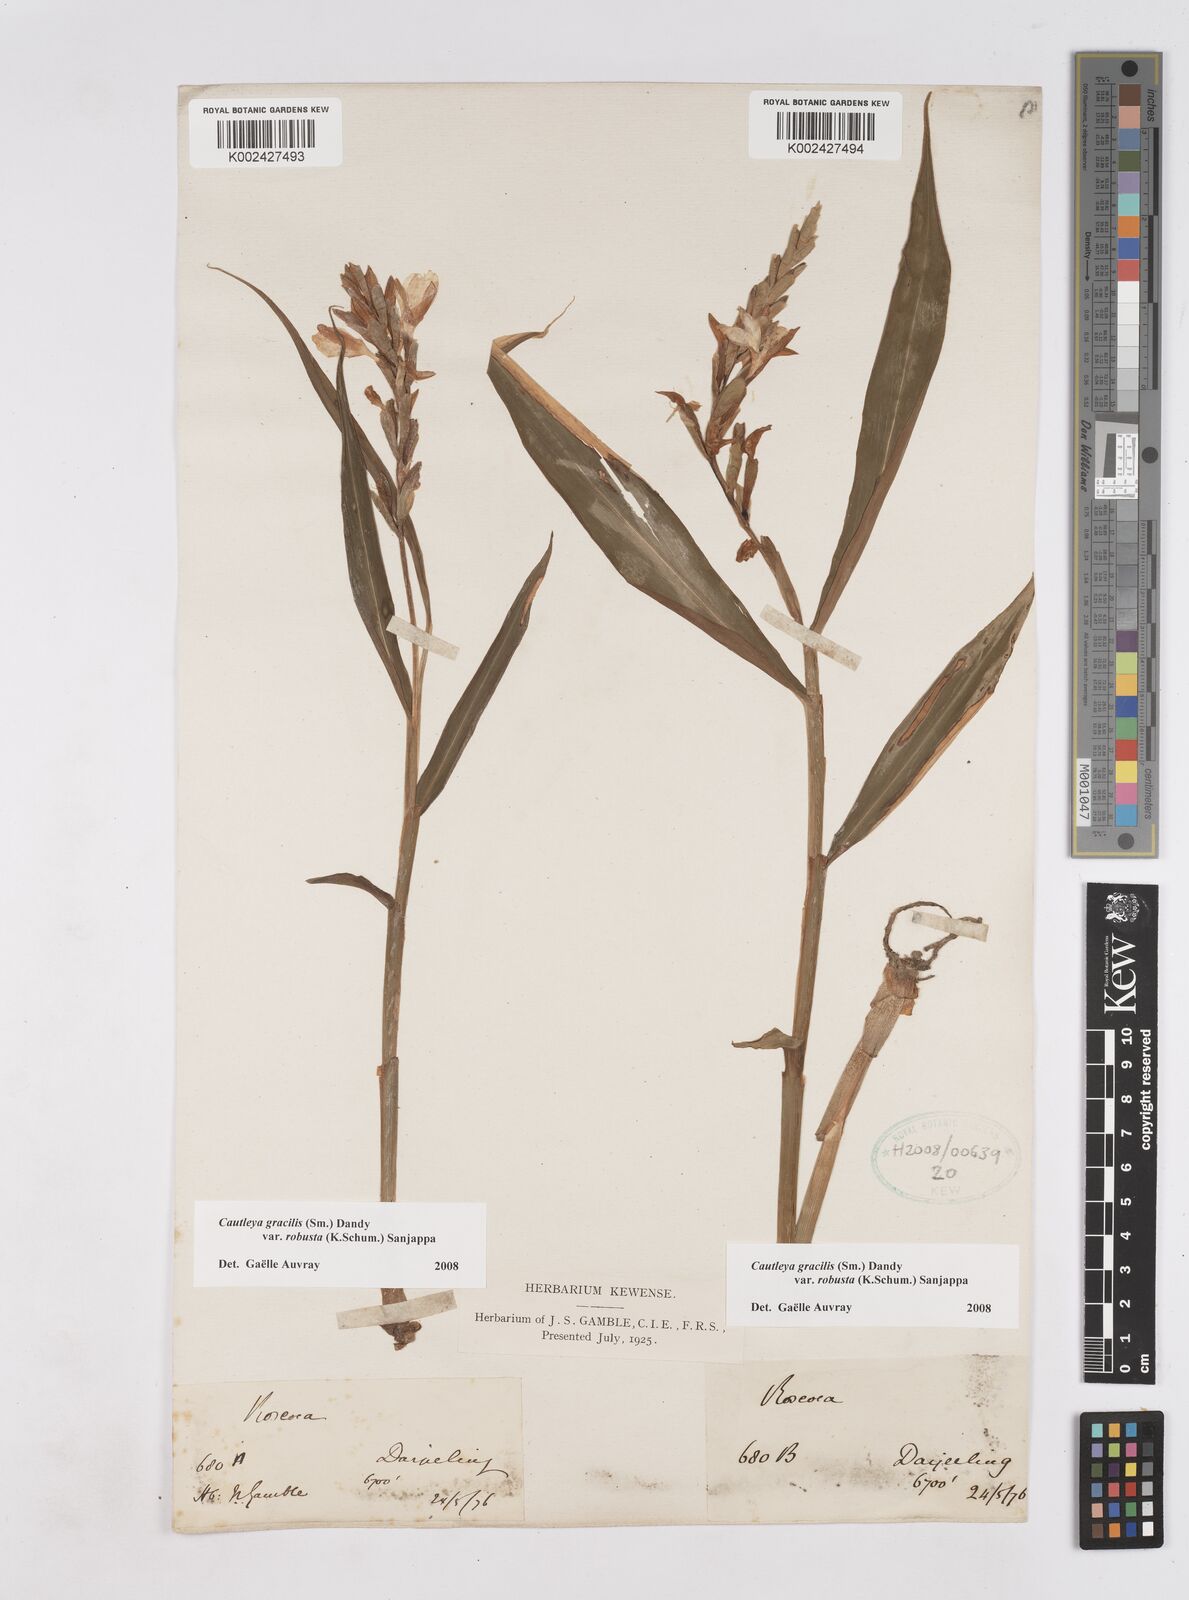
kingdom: Plantae
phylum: Tracheophyta
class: Liliopsida
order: Zingiberales
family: Zingiberaceae
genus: Cautleya
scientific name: Cautleya gracilis
